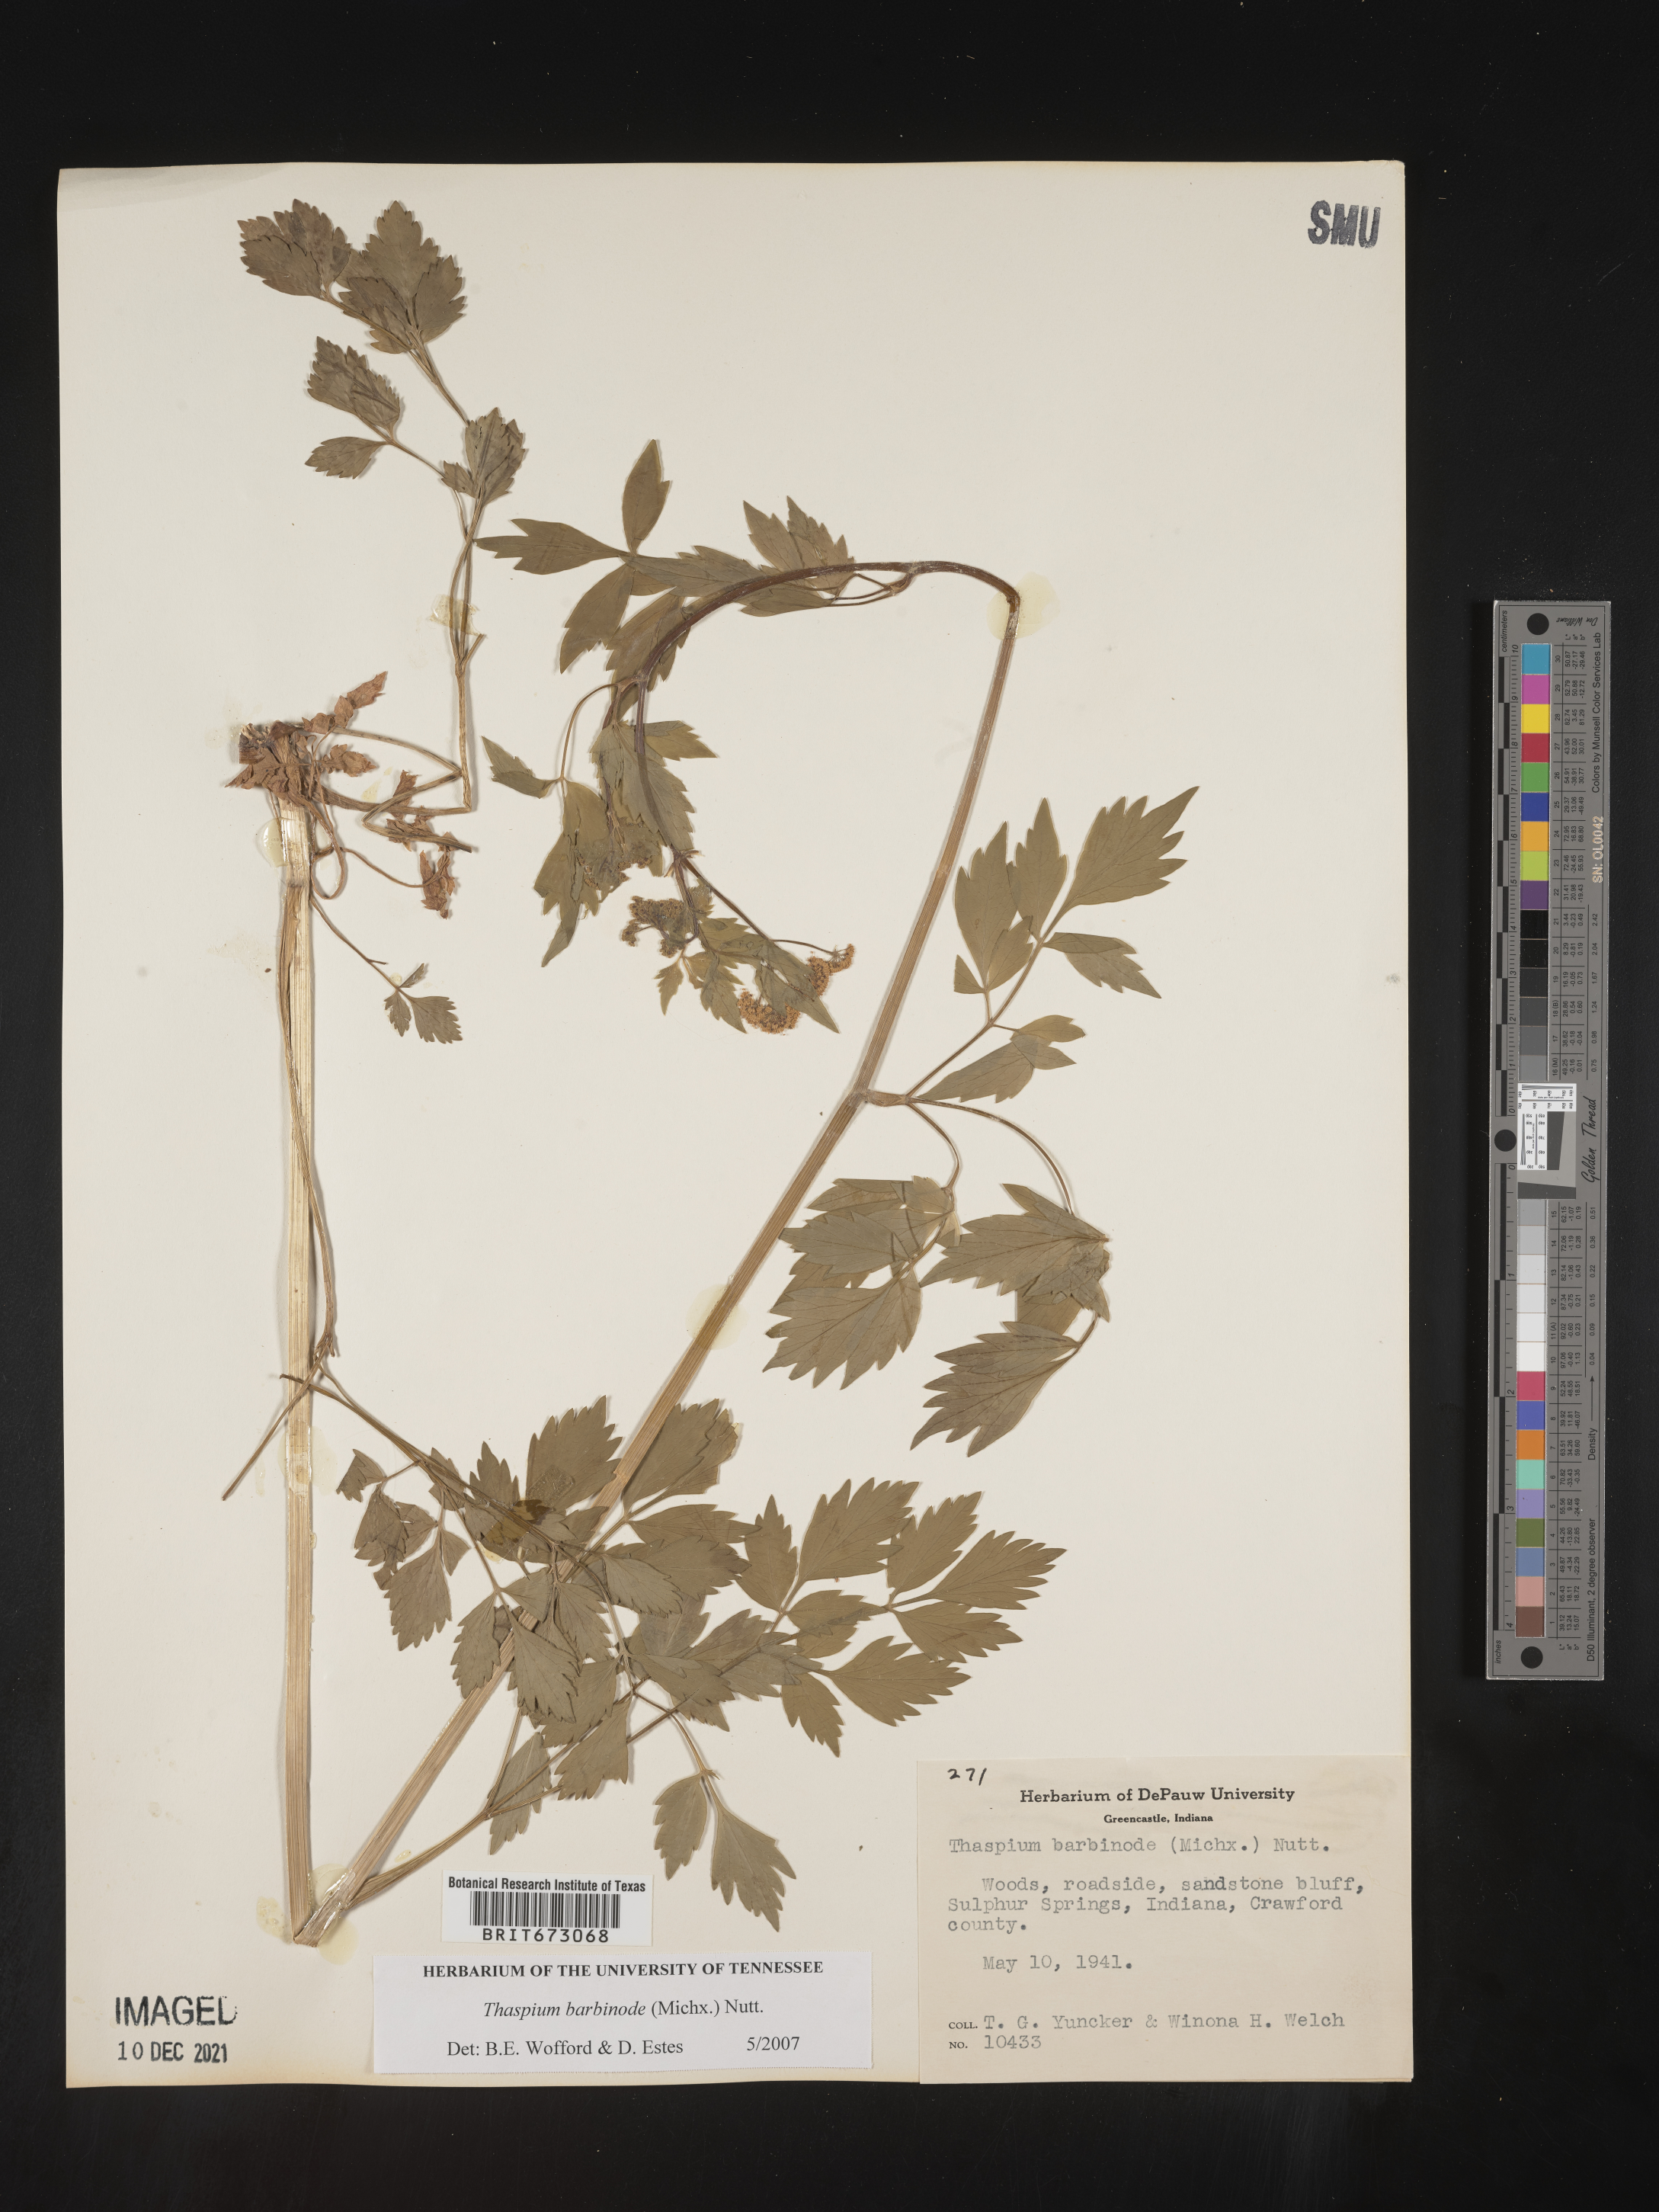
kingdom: Plantae
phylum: Tracheophyta
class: Magnoliopsida
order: Apiales
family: Apiaceae
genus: Thaspium
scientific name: Thaspium barbinode
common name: Bearded meadow-parsnip
